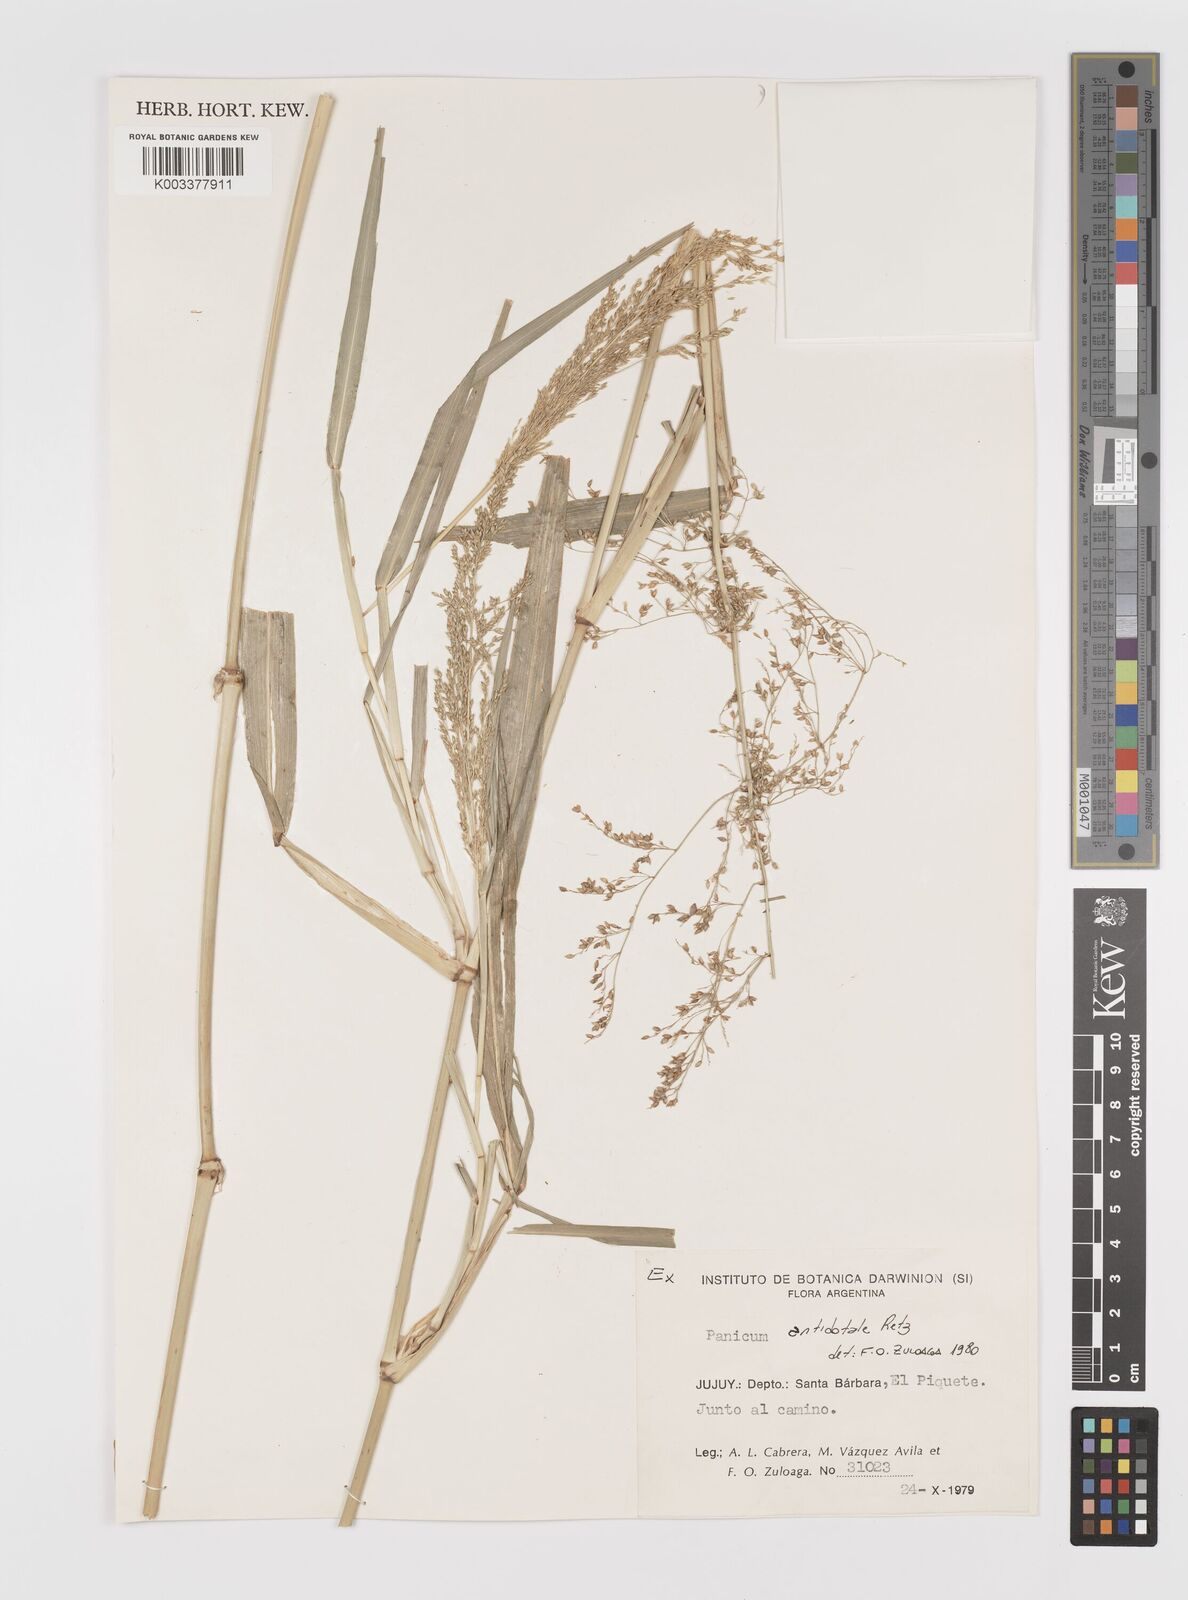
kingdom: Plantae
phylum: Tracheophyta
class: Liliopsida
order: Poales
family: Poaceae
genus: Panicum
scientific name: Panicum
